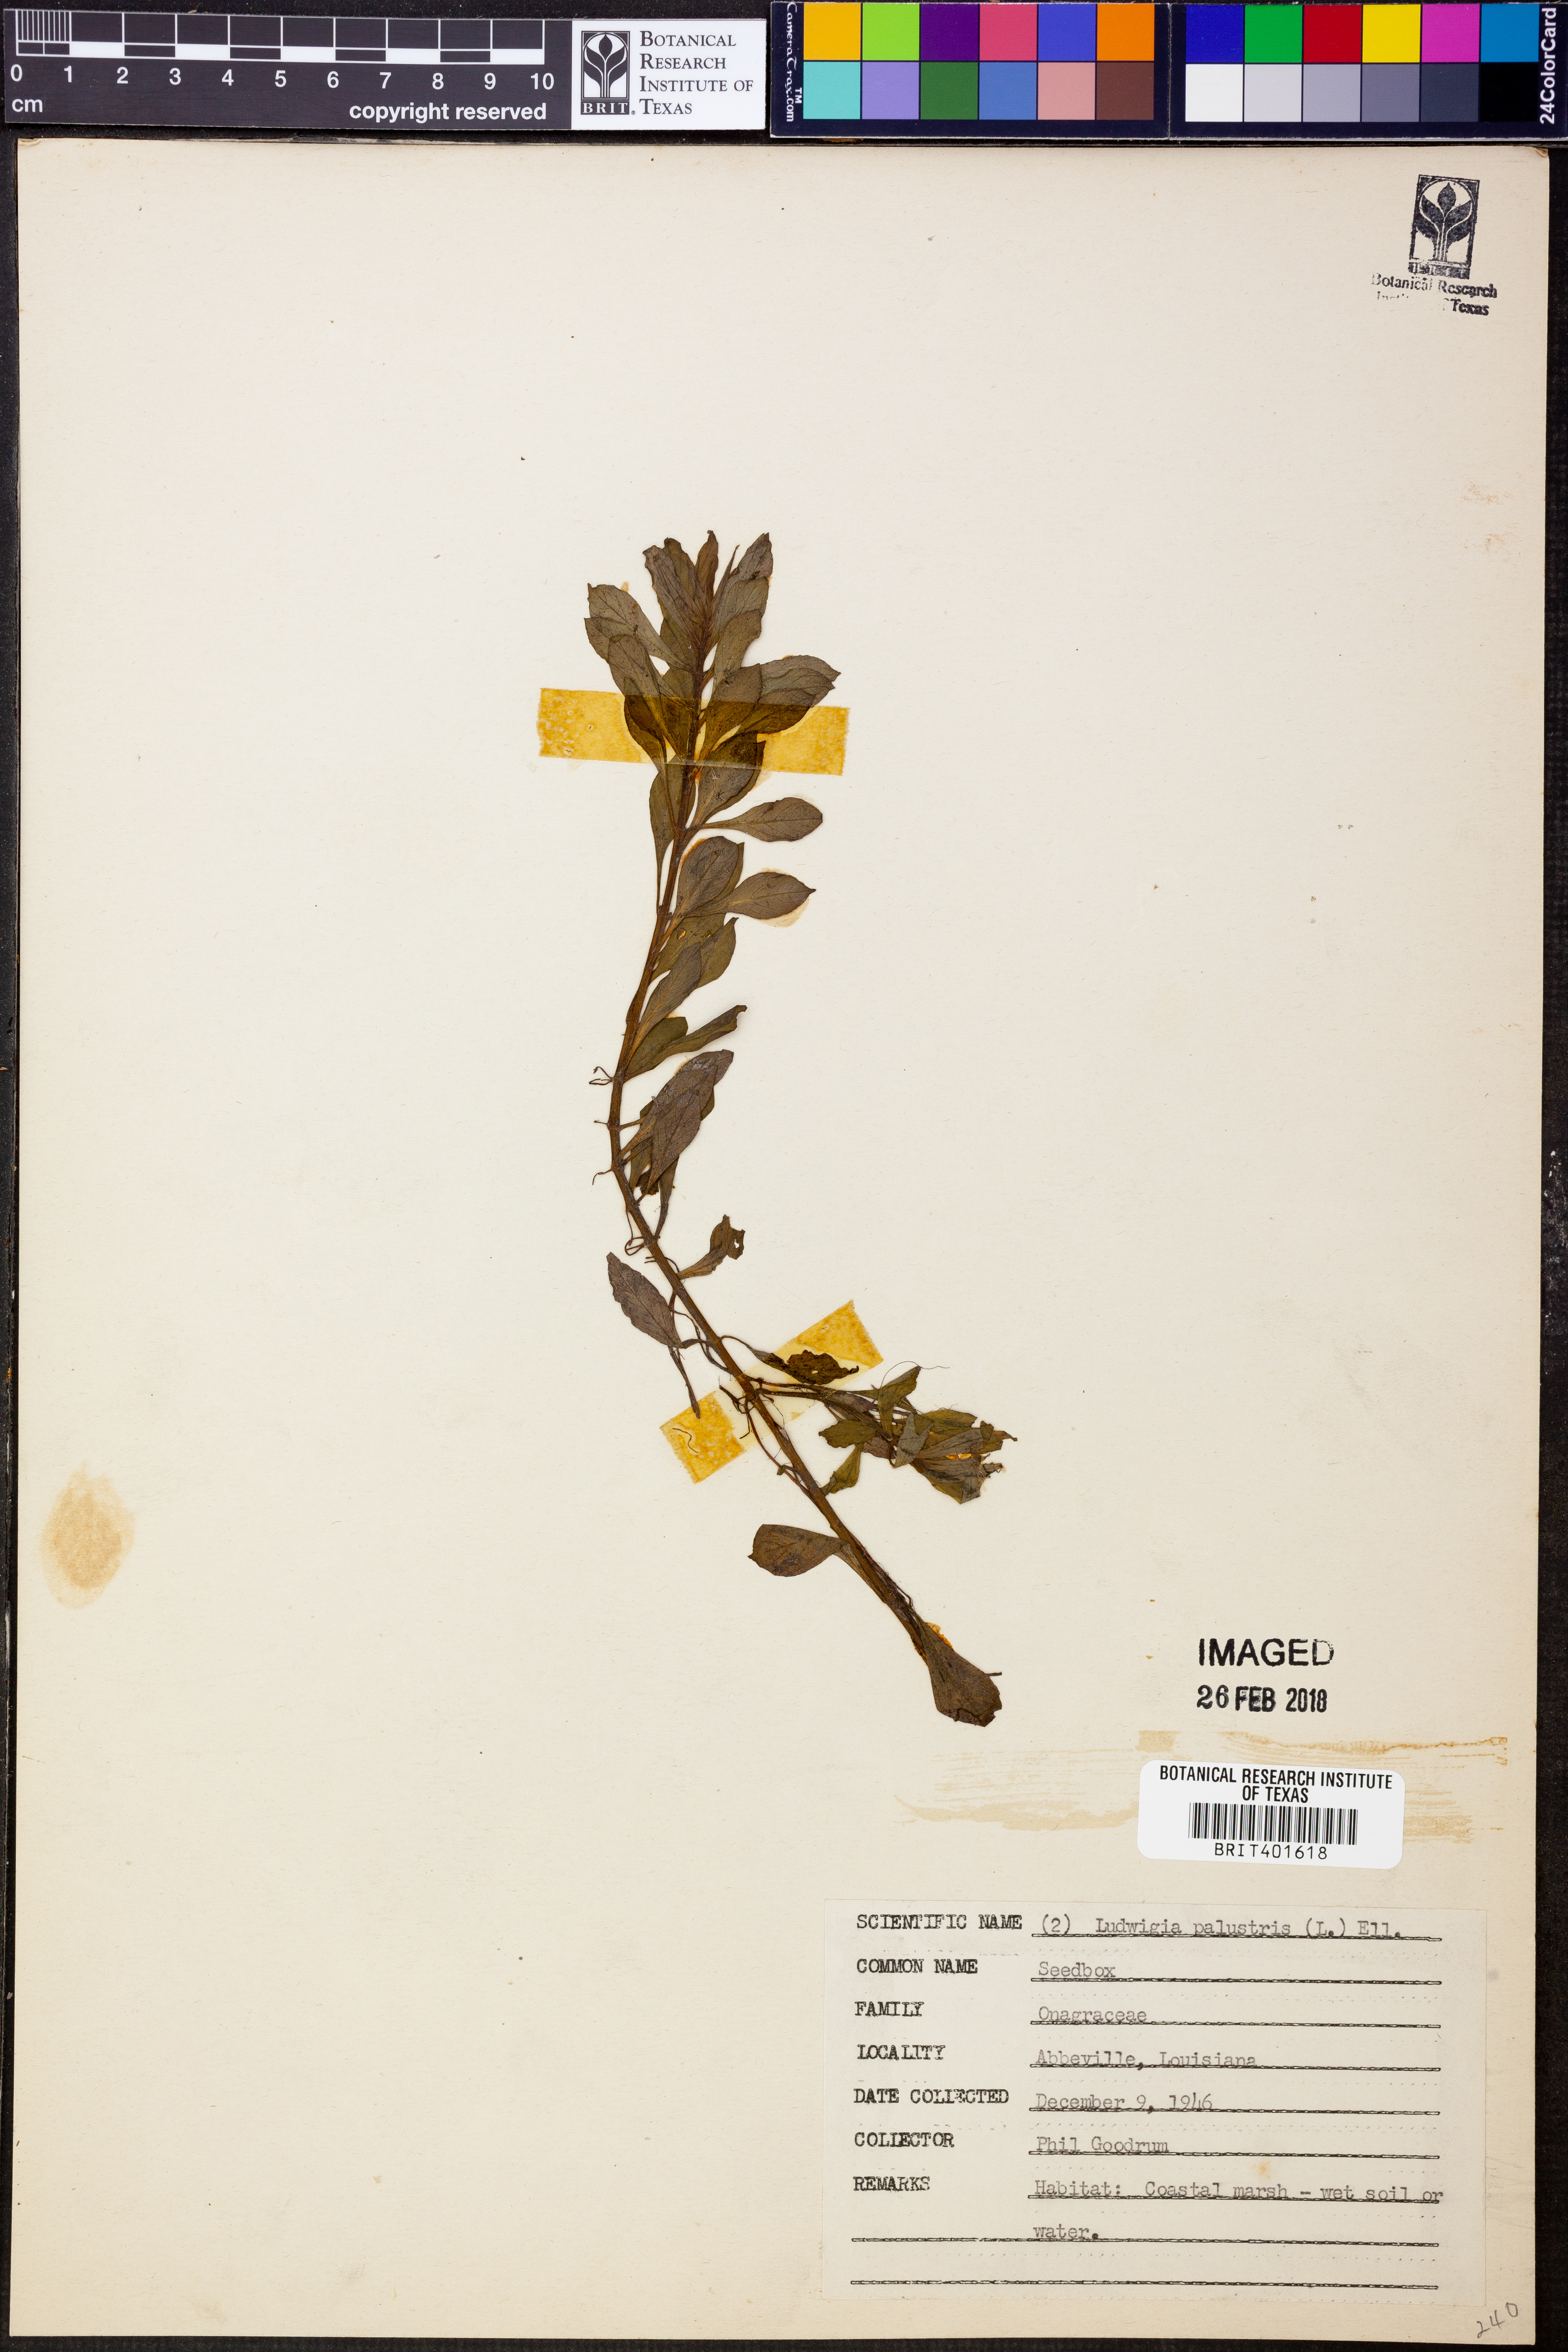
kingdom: Plantae
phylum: Tracheophyta
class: Magnoliopsida
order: Myrtales
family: Onagraceae
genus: Ludwigia
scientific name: Ludwigia palustris
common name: Hampshire-purslane
